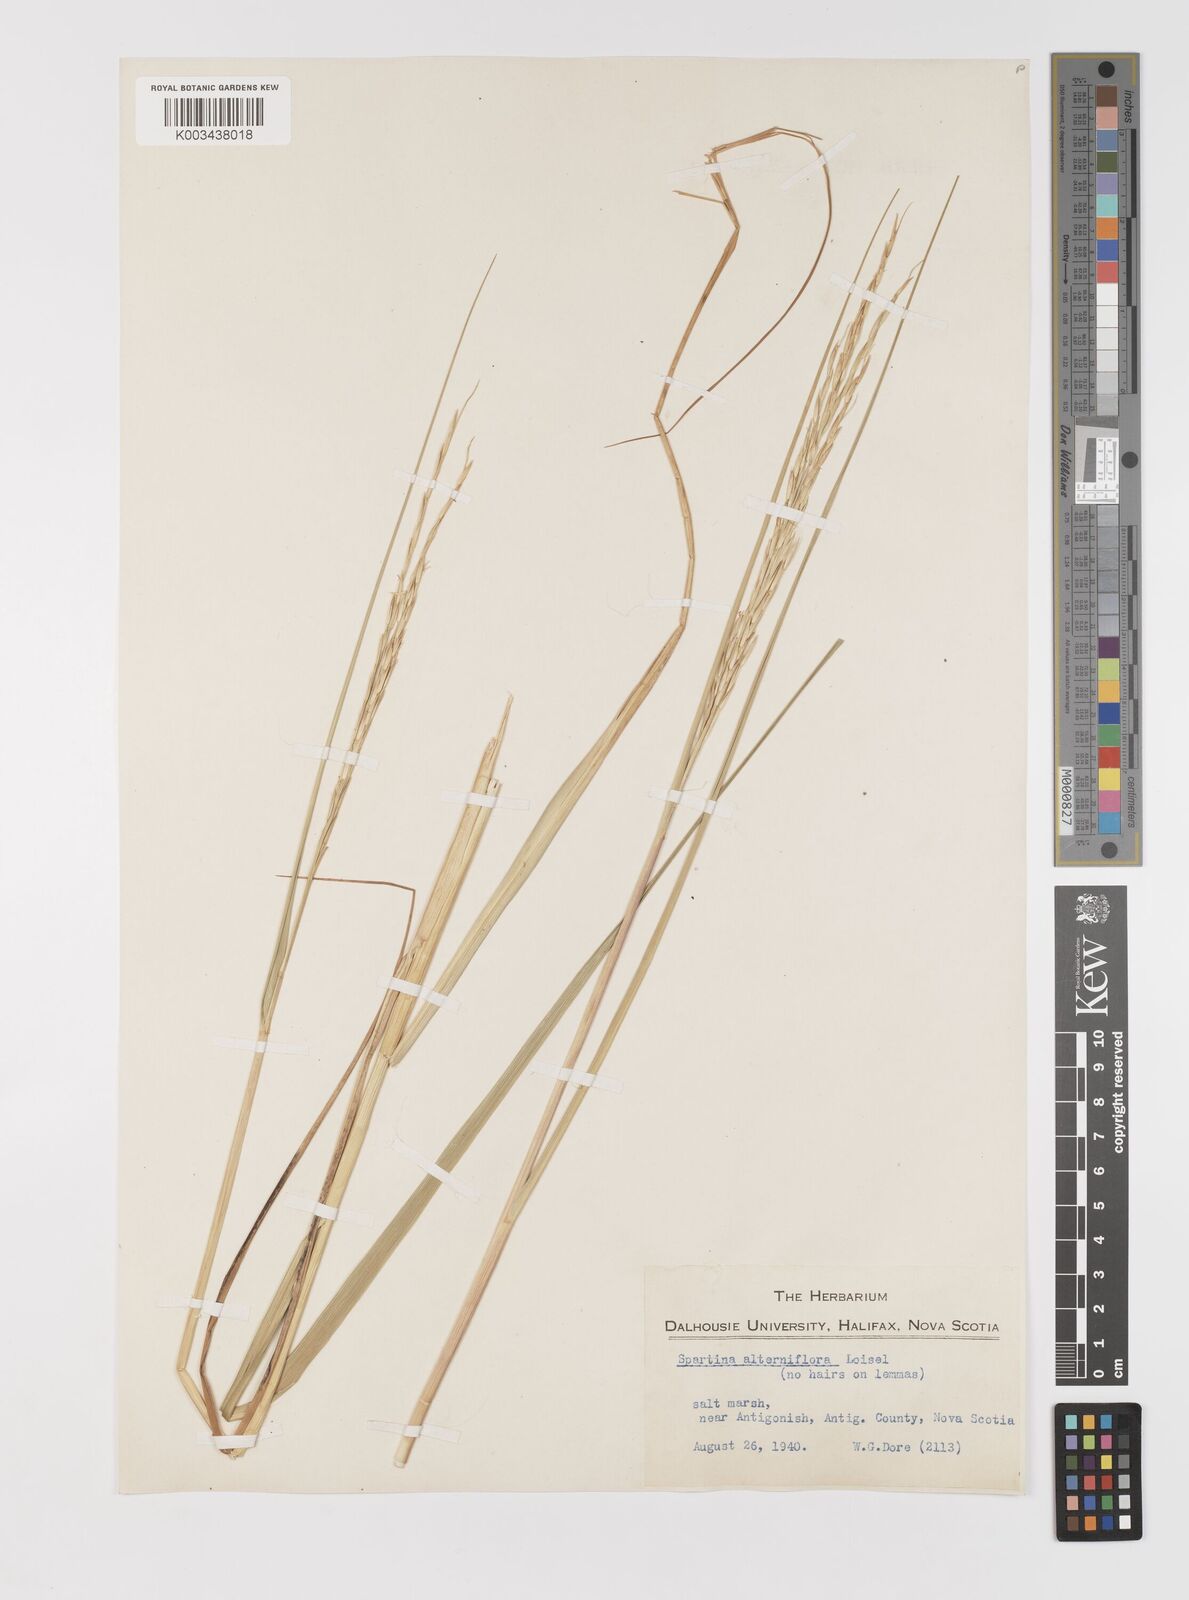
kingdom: Animalia
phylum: Mollusca
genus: Spartina
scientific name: Spartina
